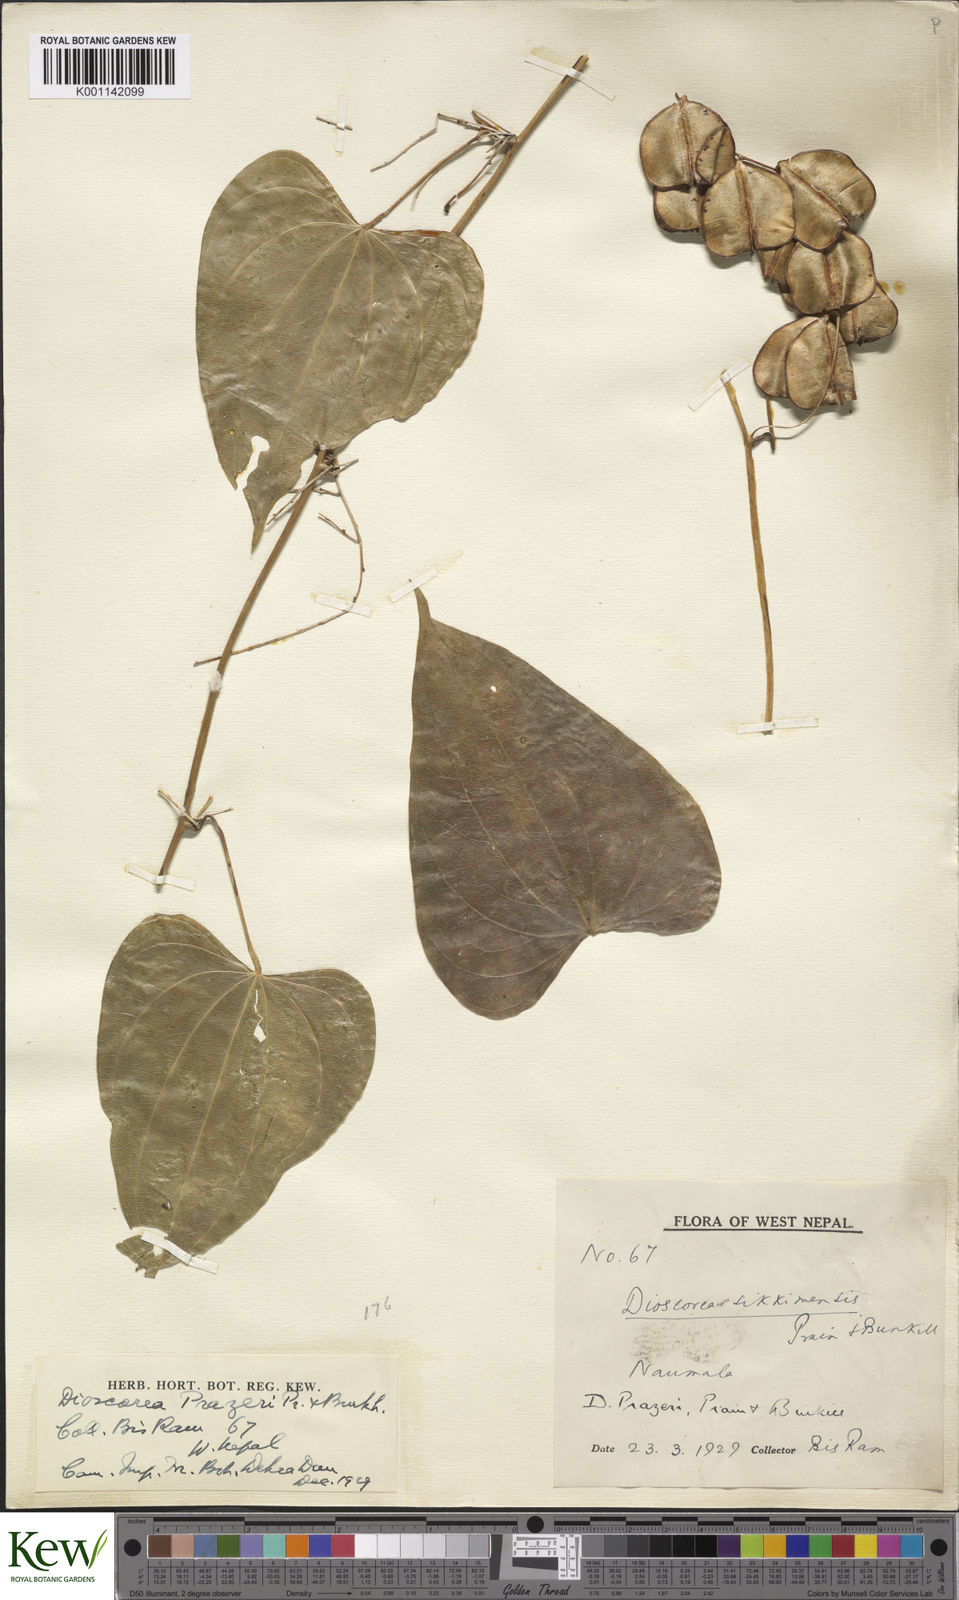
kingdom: Plantae
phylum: Tracheophyta
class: Liliopsida
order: Dioscoreales
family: Dioscoreaceae
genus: Dioscorea
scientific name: Dioscorea prazeri
